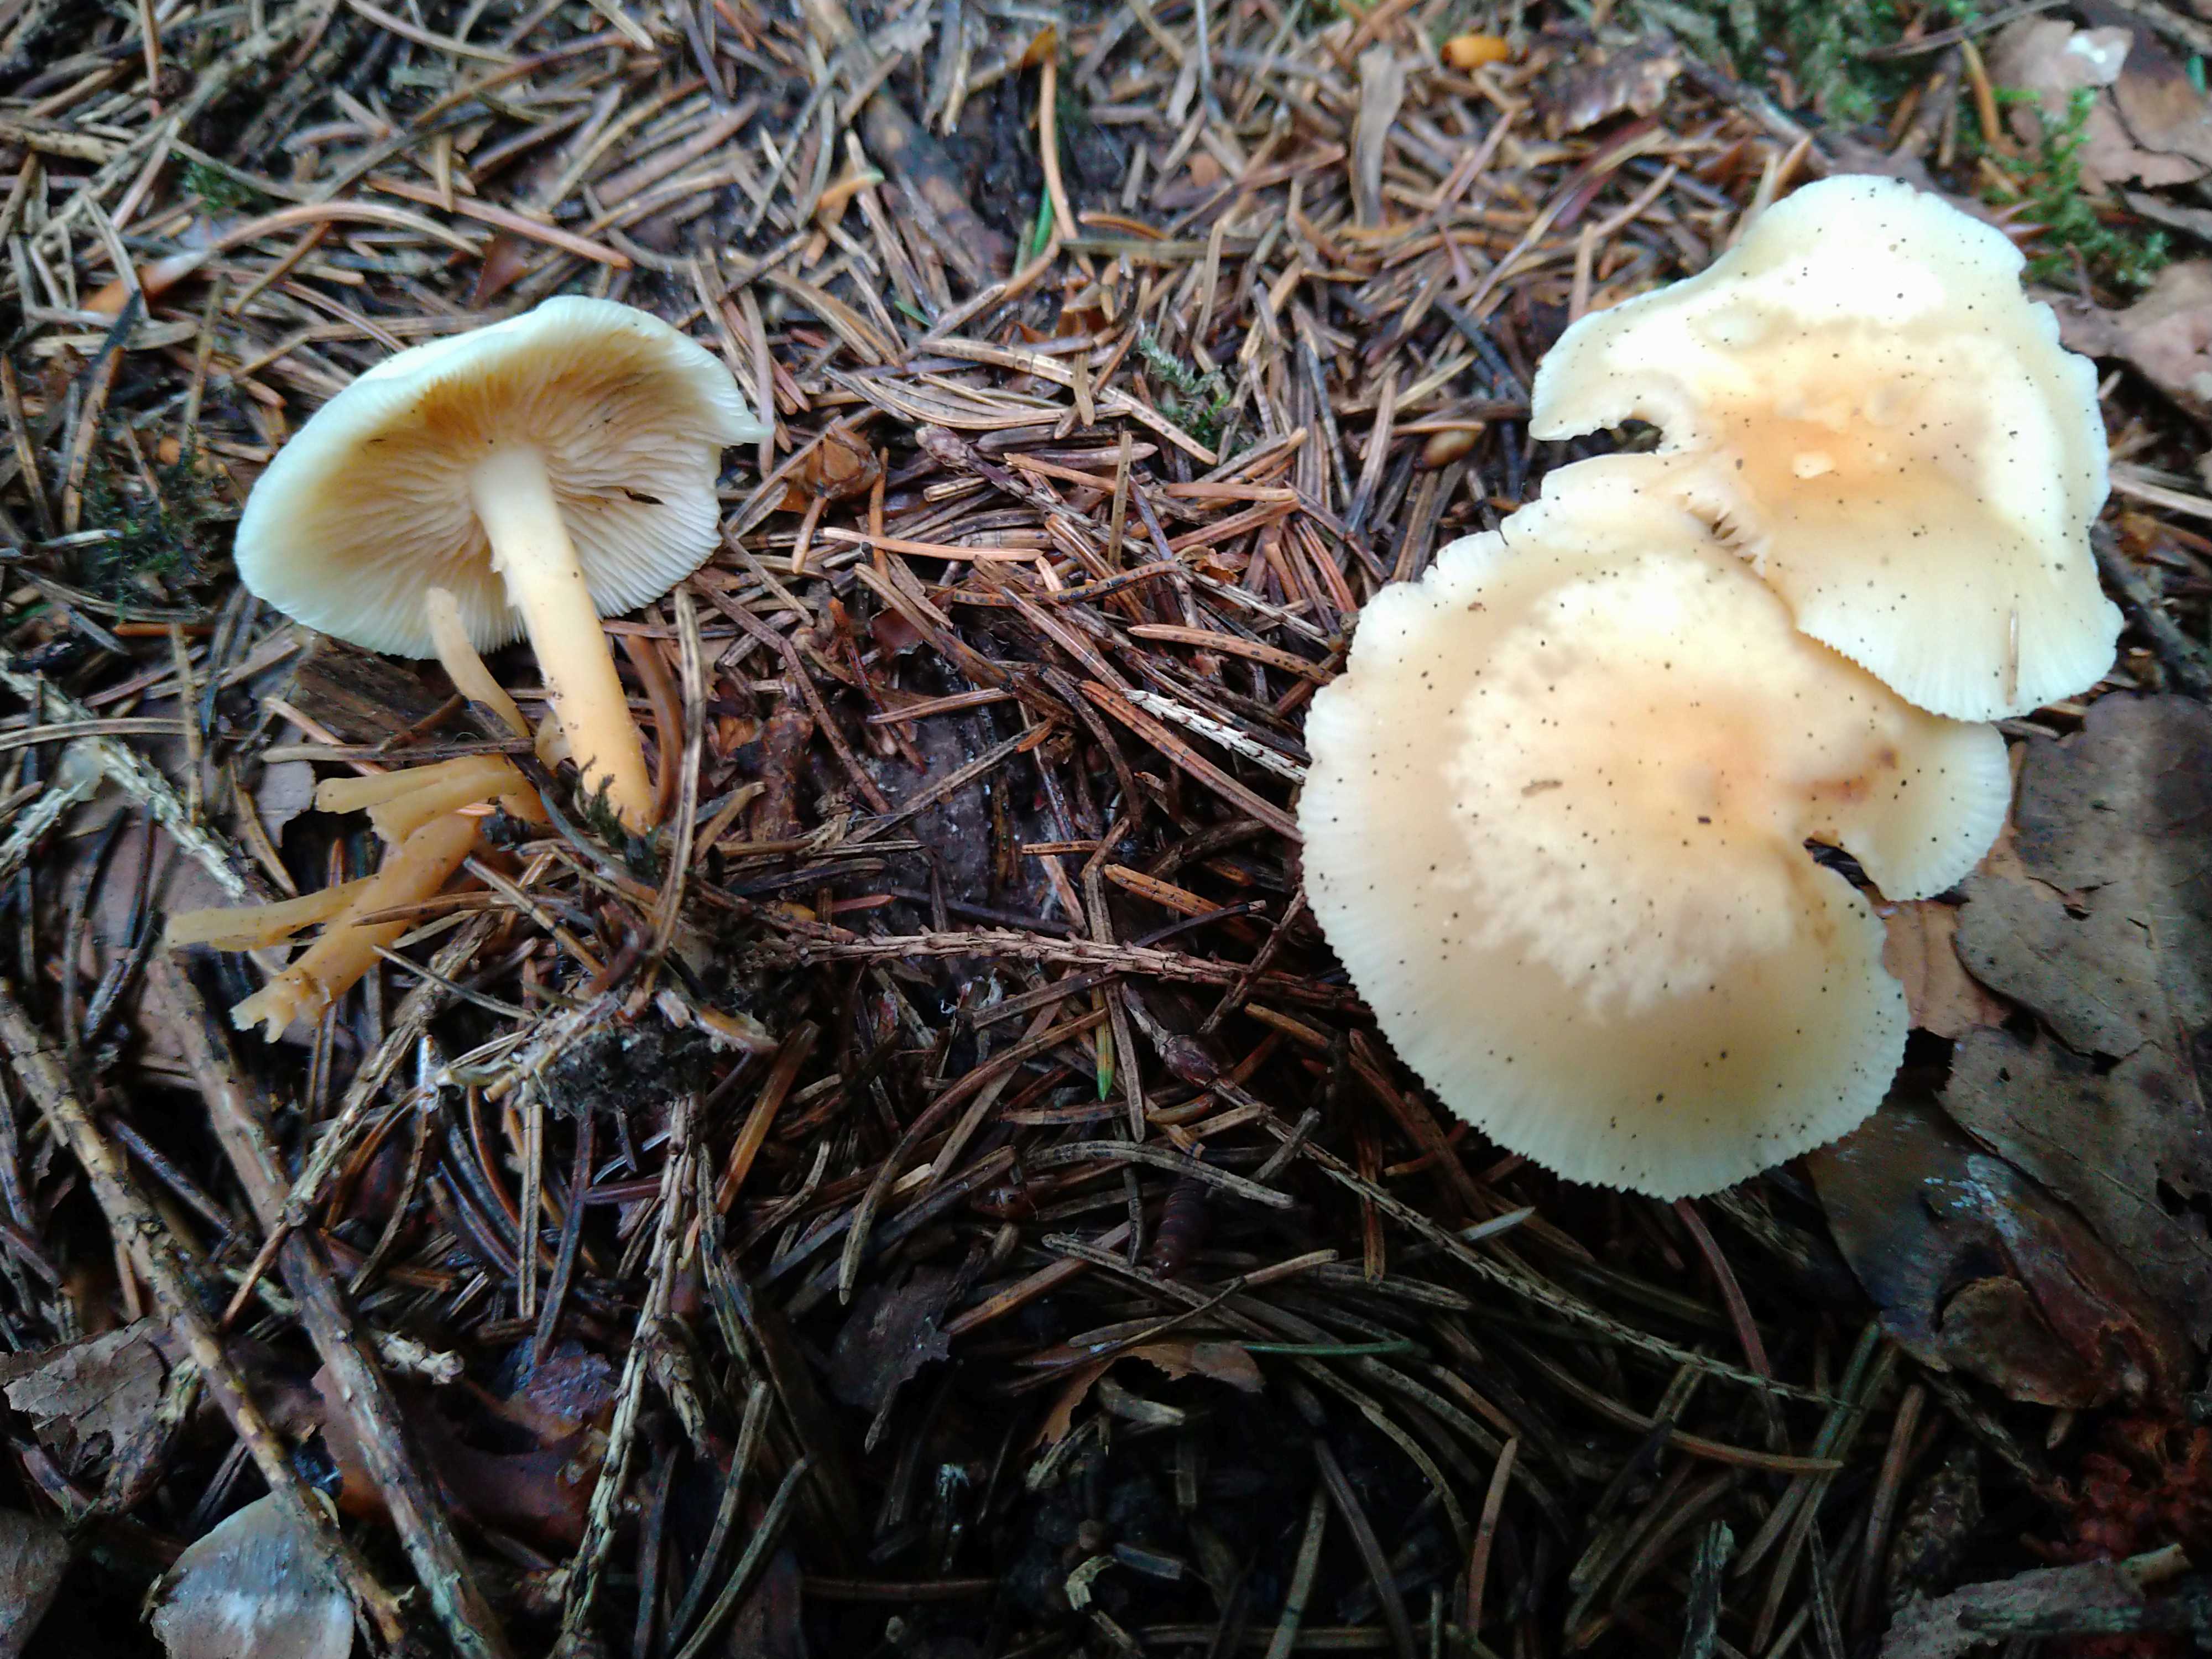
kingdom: Fungi
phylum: Basidiomycota
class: Agaricomycetes
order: Agaricales
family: Omphalotaceae
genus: Gymnopus
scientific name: Gymnopus dryophilus
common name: løv-fladhat
